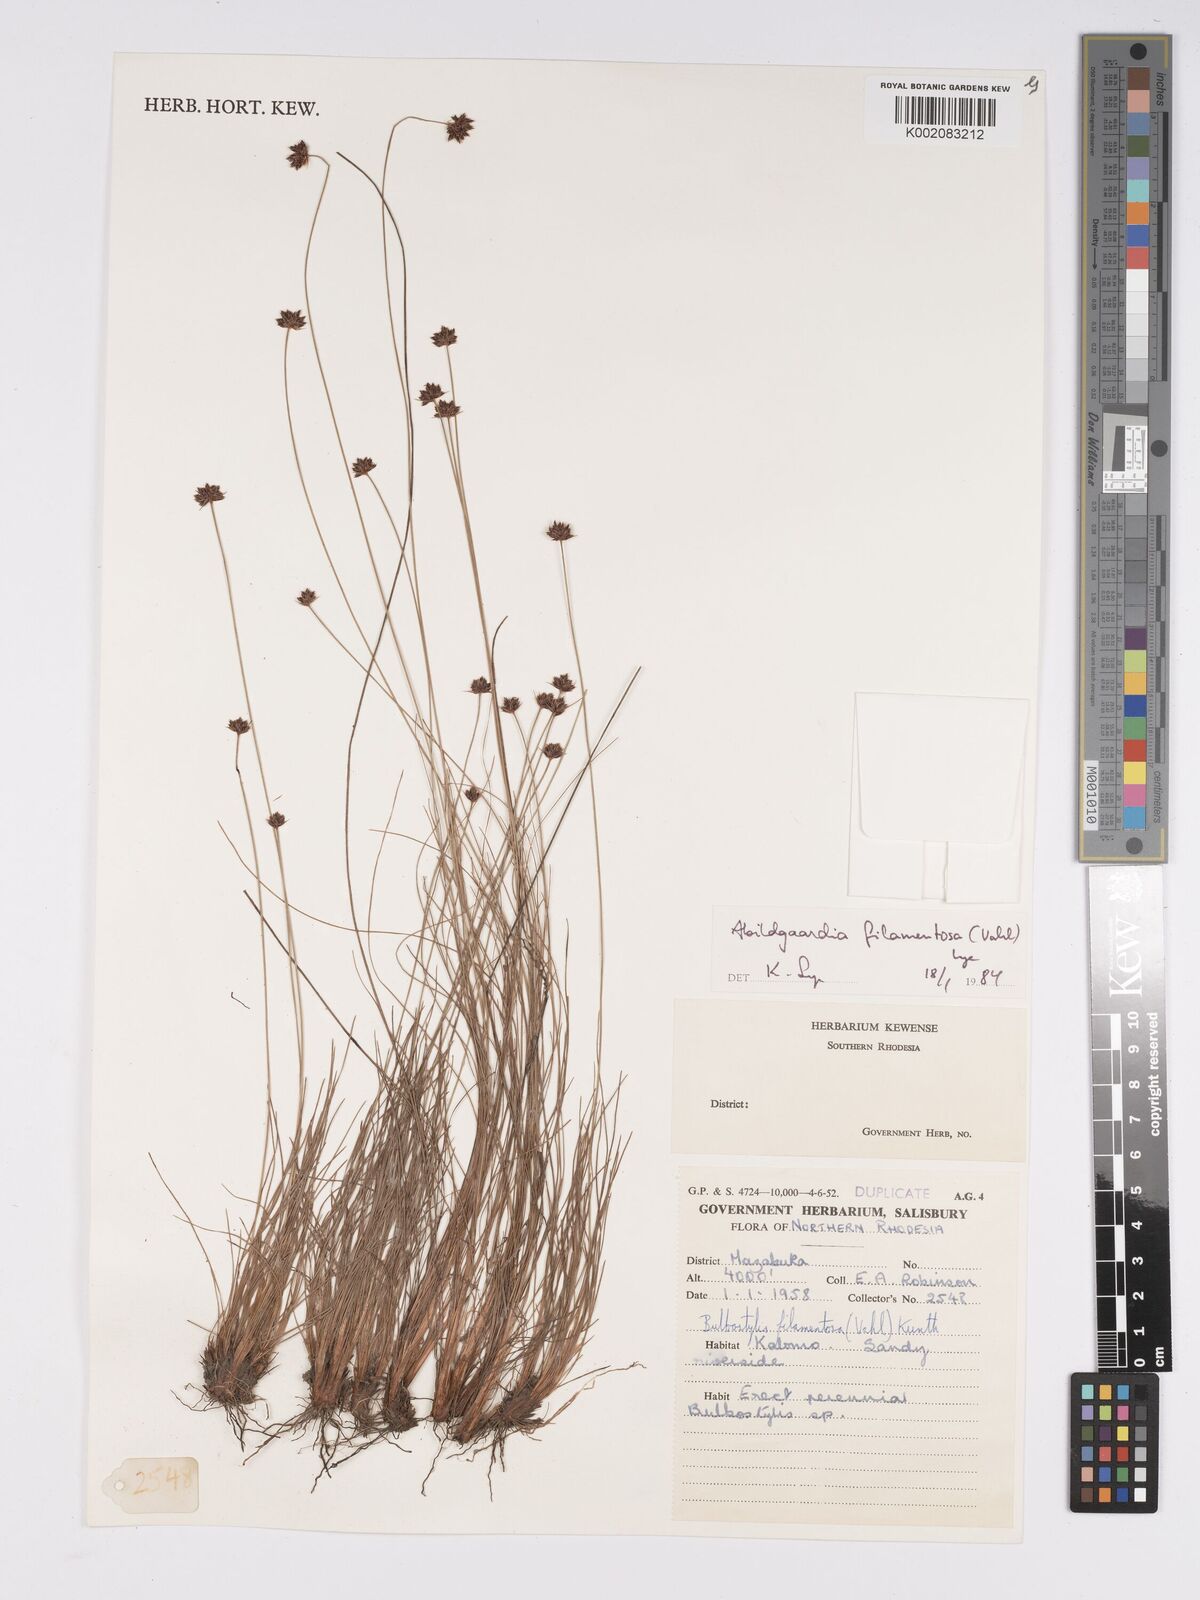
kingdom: Plantae
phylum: Tracheophyta
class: Liliopsida
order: Poales
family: Cyperaceae
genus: Bulbostylis
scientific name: Bulbostylis filamentosa
